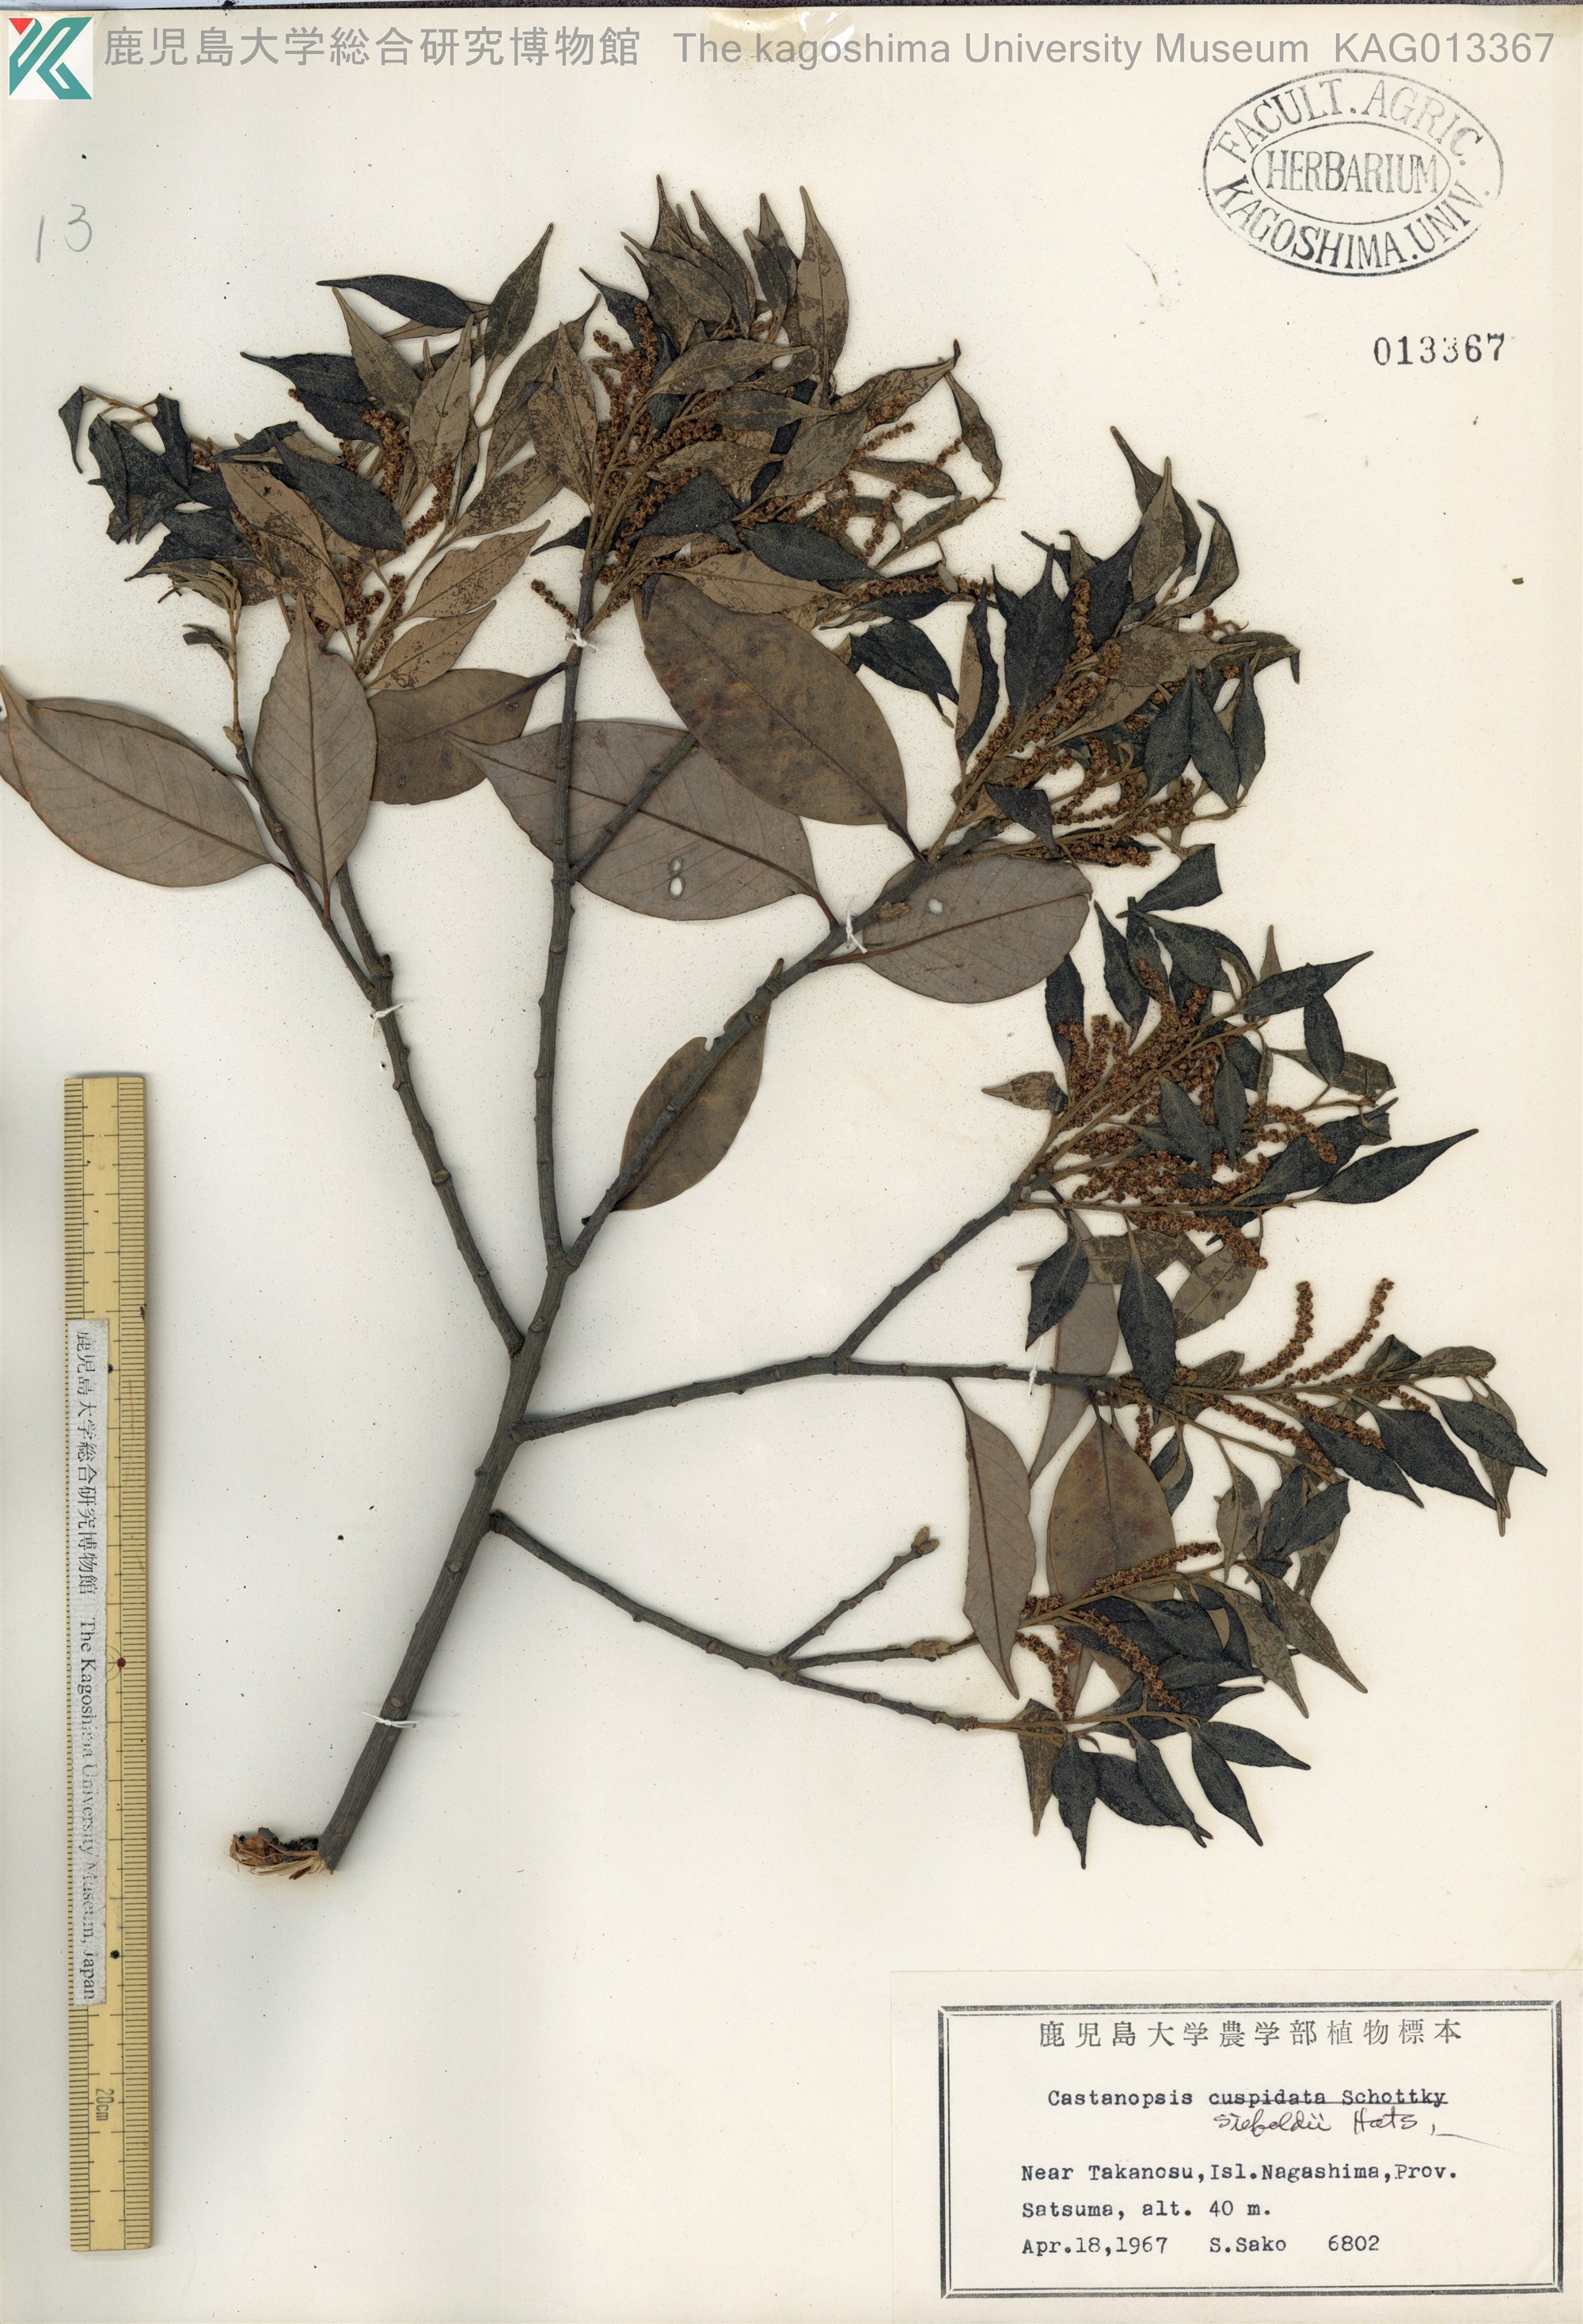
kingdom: Plantae
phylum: Tracheophyta
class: Magnoliopsida
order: Fagales
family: Fagaceae
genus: Castanopsis
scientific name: Castanopsis sieboldii
